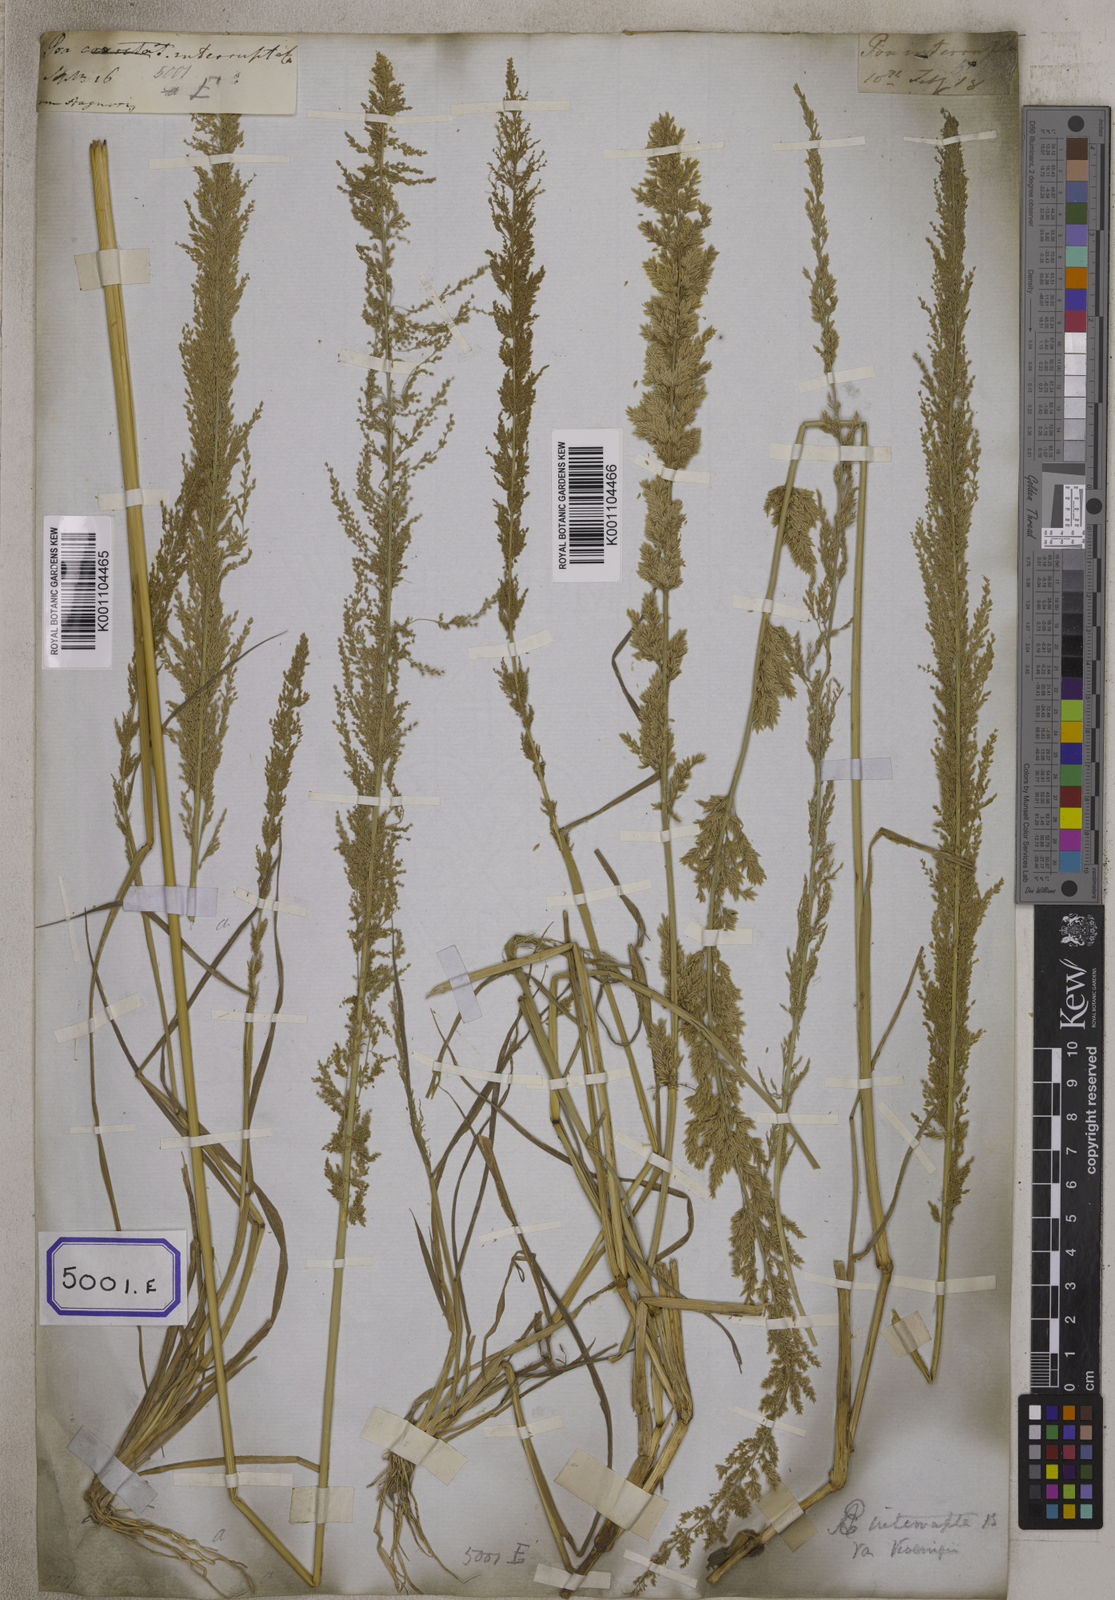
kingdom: Plantae
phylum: Tracheophyta
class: Liliopsida
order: Poales
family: Poaceae
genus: Eragrostis
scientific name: Eragrostis
